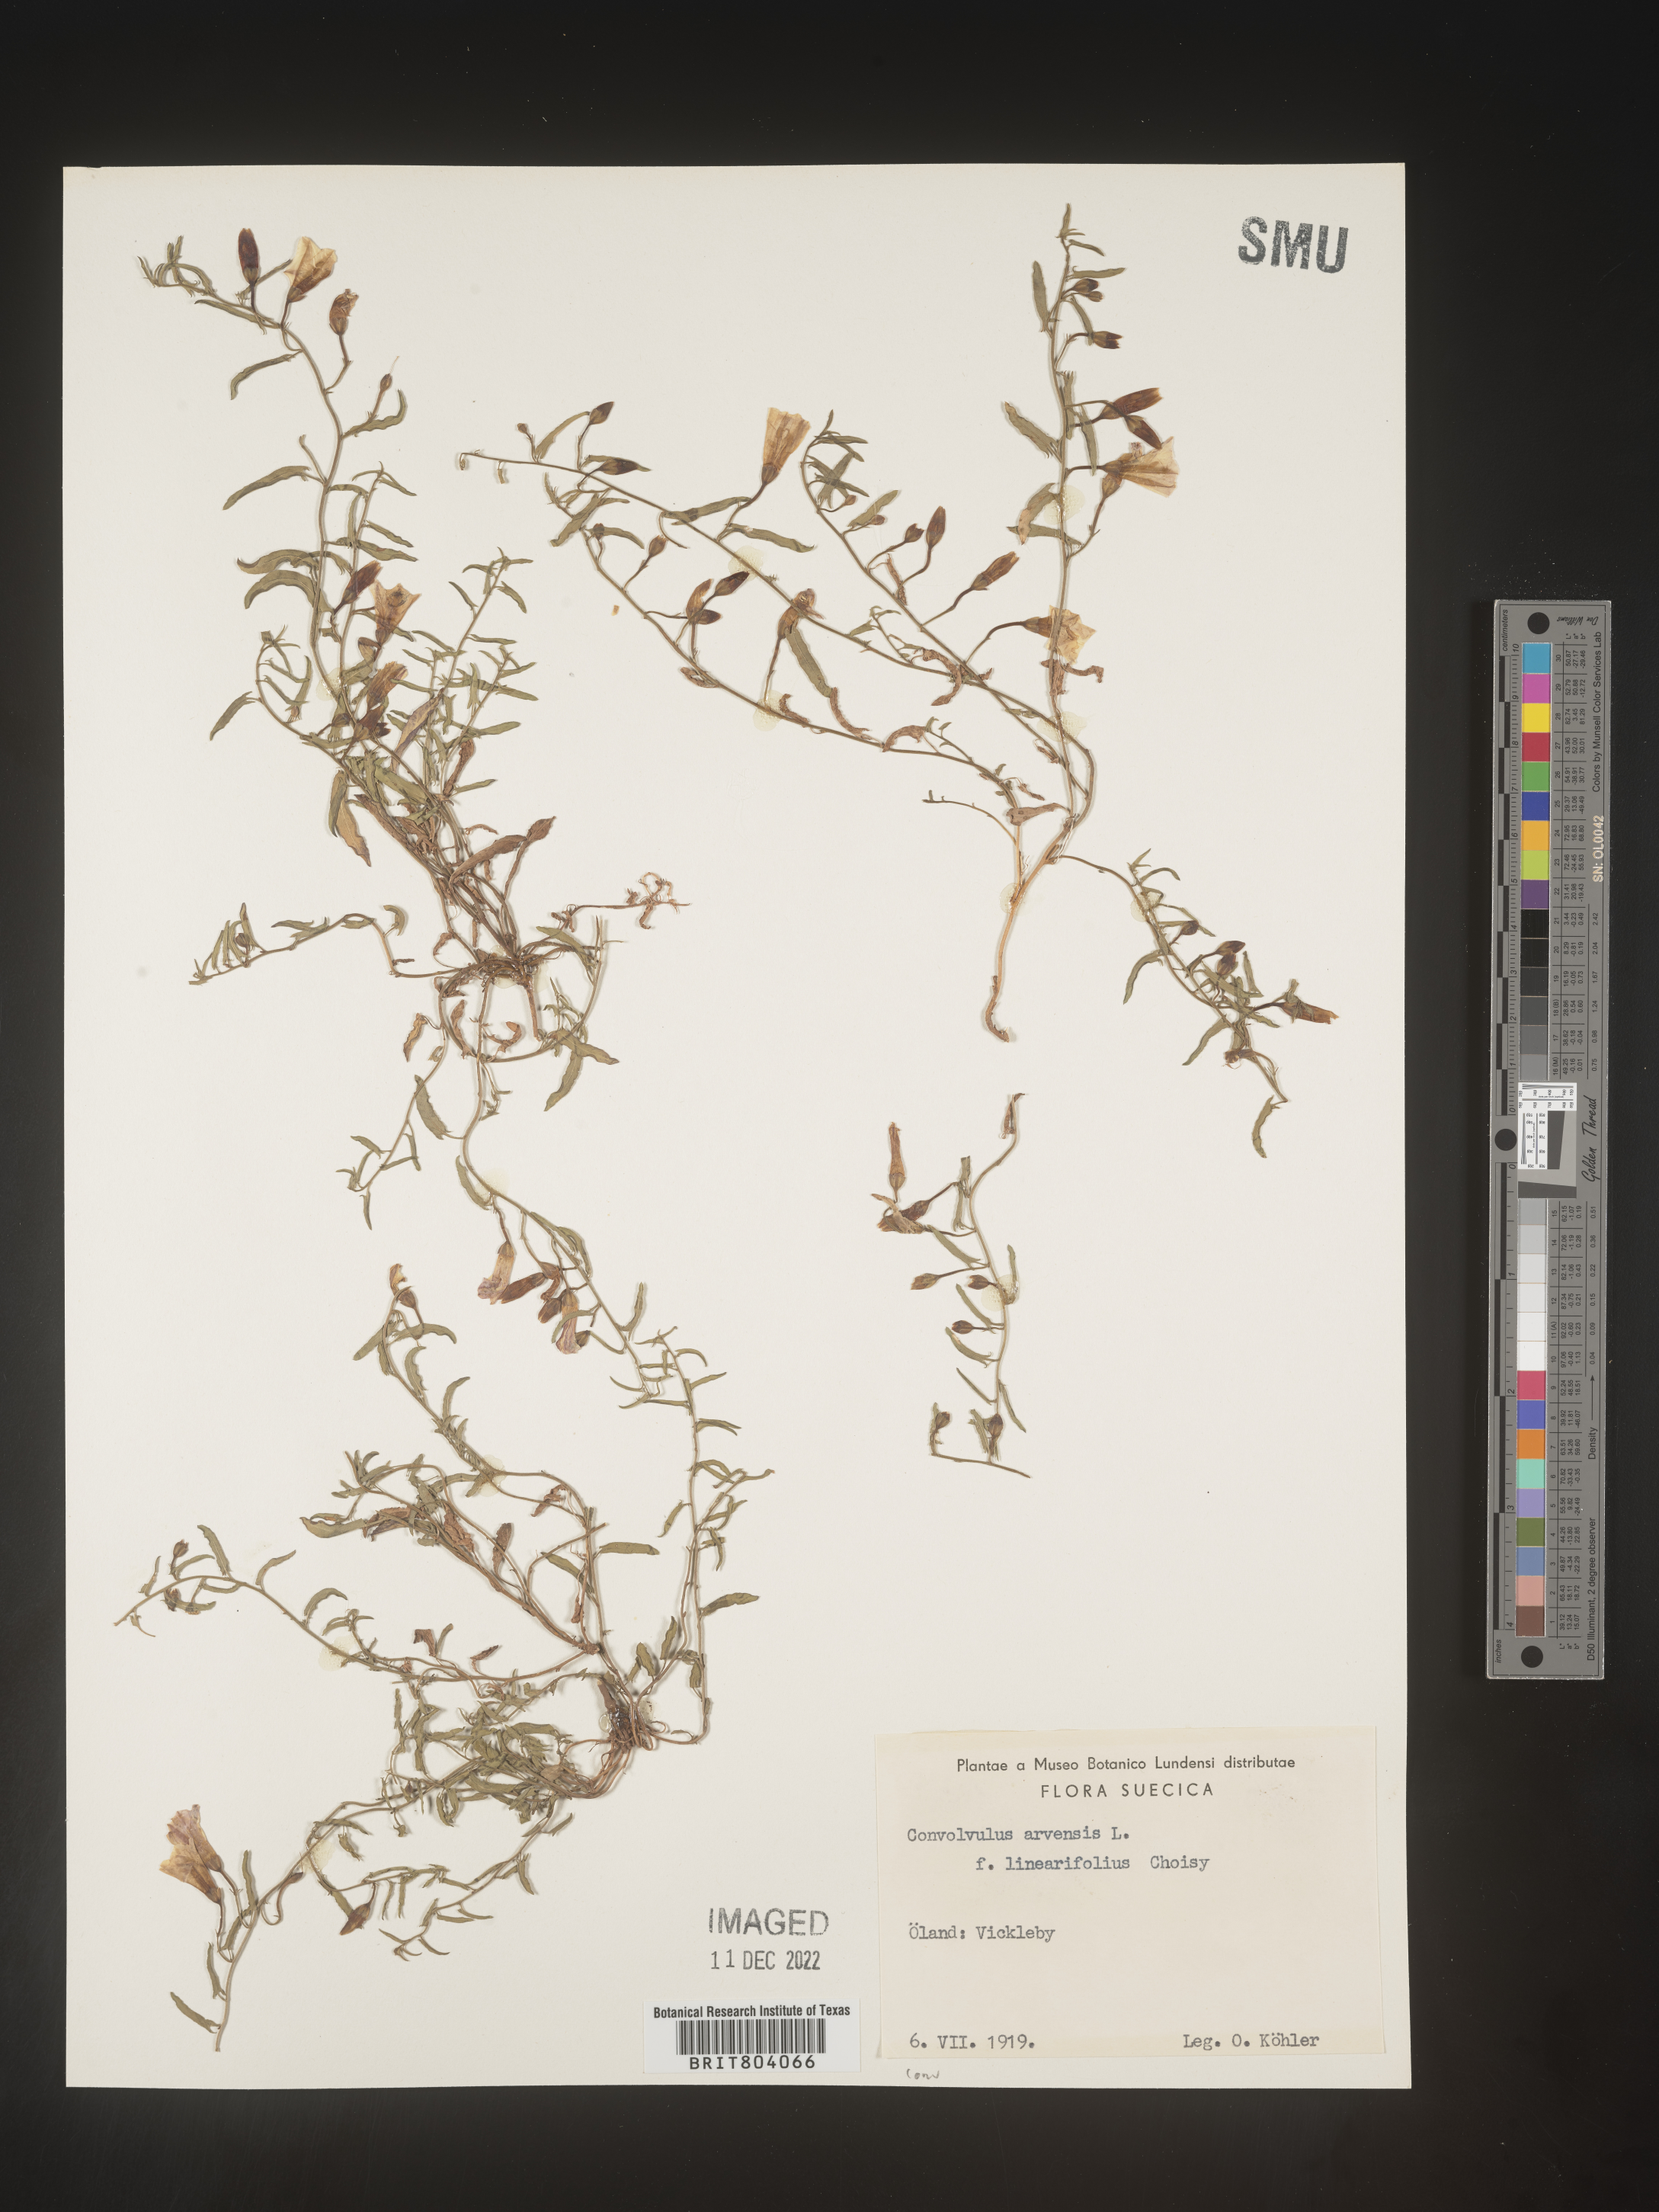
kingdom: Plantae
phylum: Tracheophyta
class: Magnoliopsida
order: Solanales
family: Convolvulaceae
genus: Convolvulus
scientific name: Convolvulus
